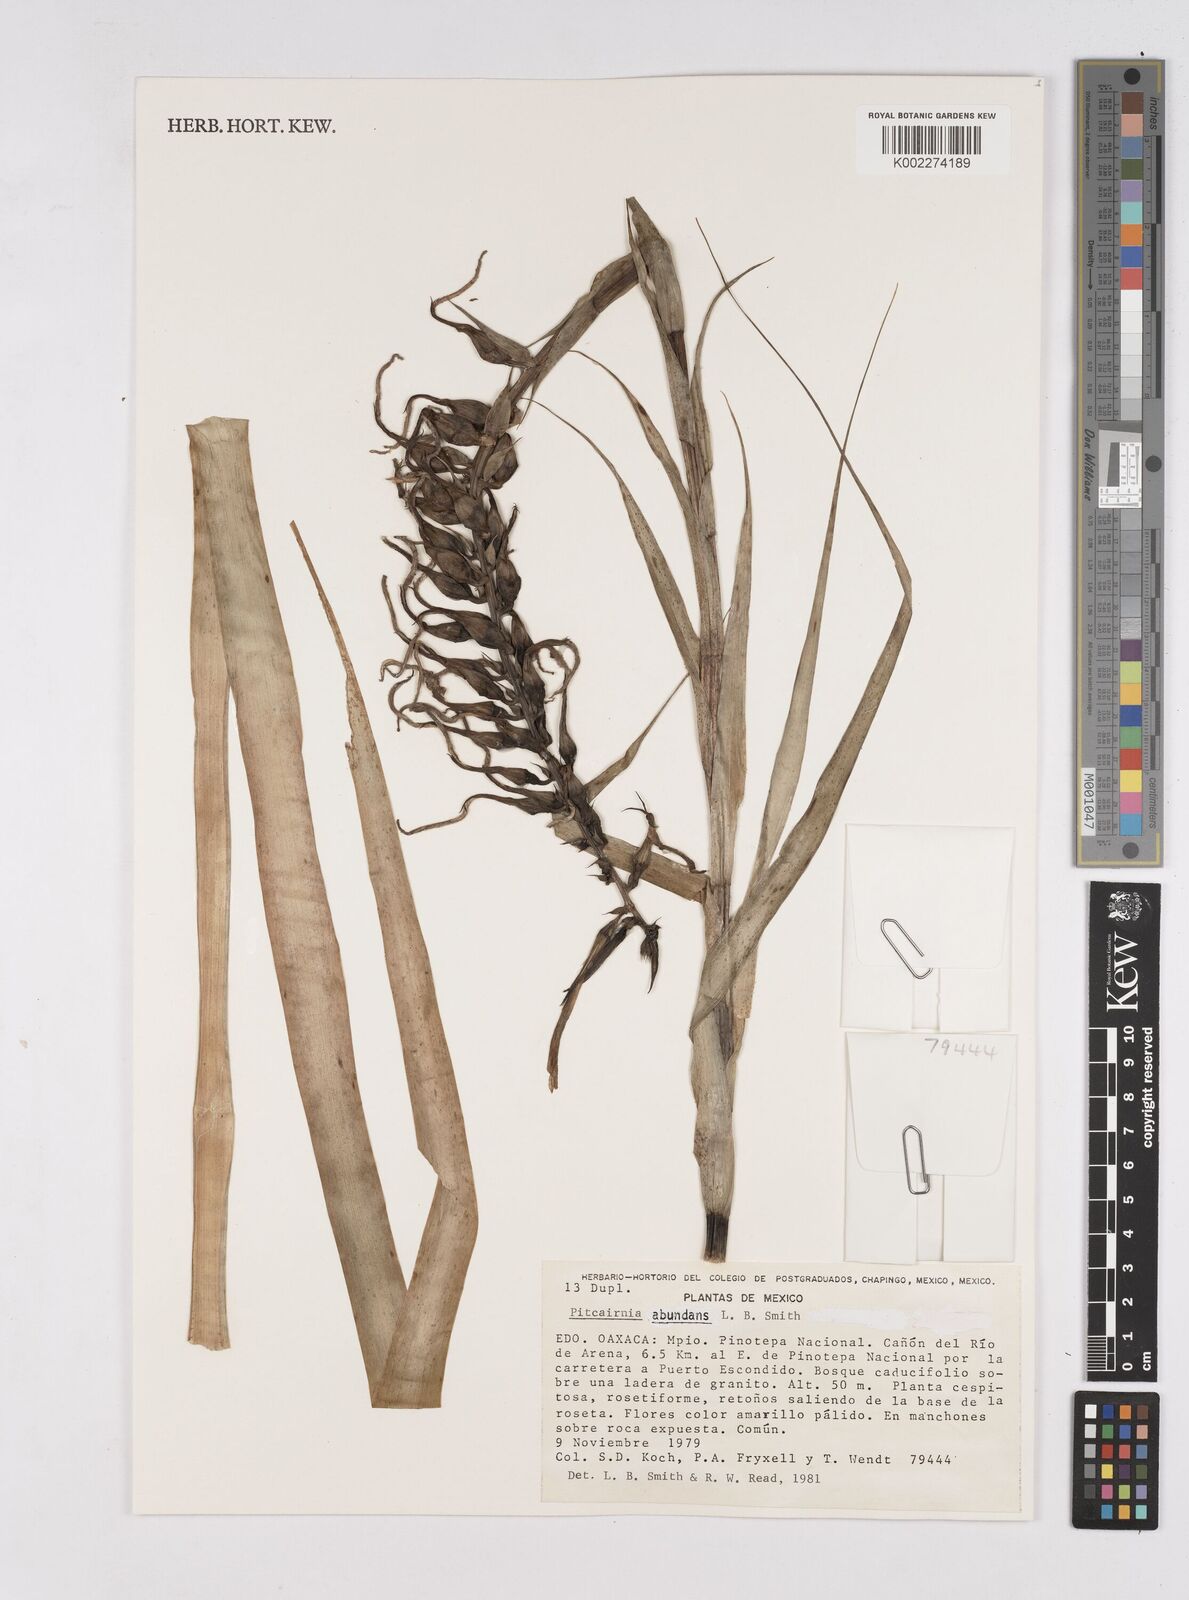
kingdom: Plantae
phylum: Tracheophyta
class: Liliopsida
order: Poales
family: Bromeliaceae
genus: Pitcairnia
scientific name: Pitcairnia abundans
